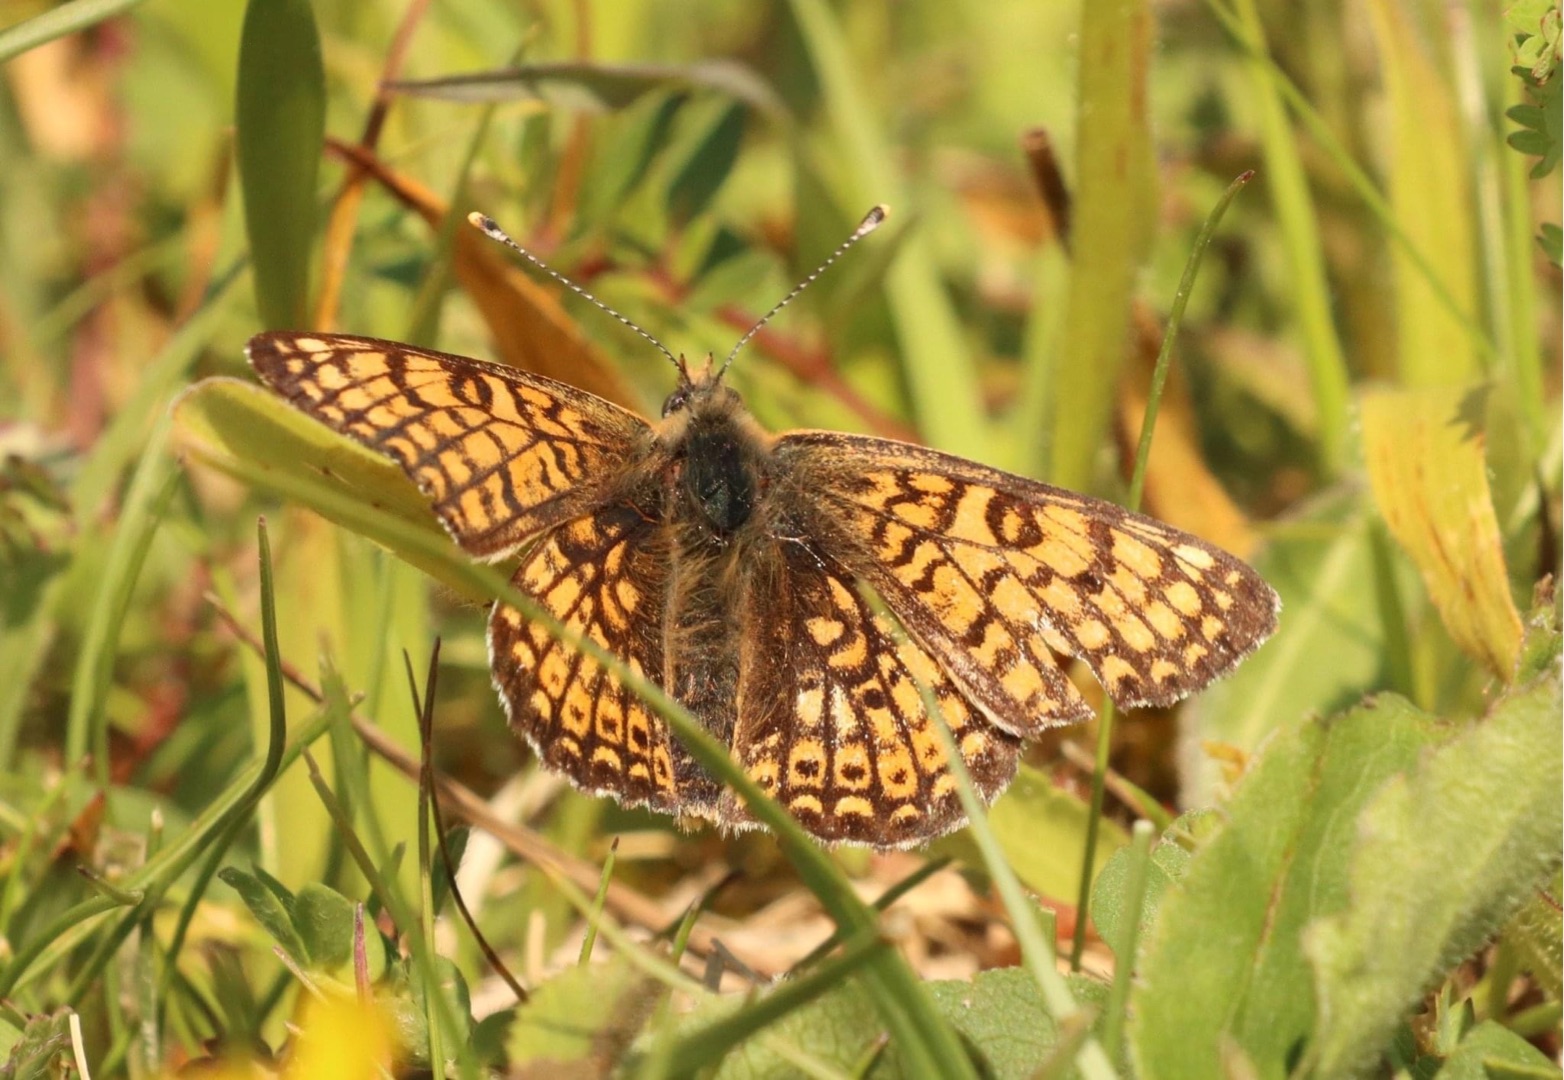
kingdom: Animalia
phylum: Arthropoda
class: Insecta
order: Lepidoptera
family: Nymphalidae
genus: Melitaea
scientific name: Melitaea cinxia
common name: Okkergul pletvinge
